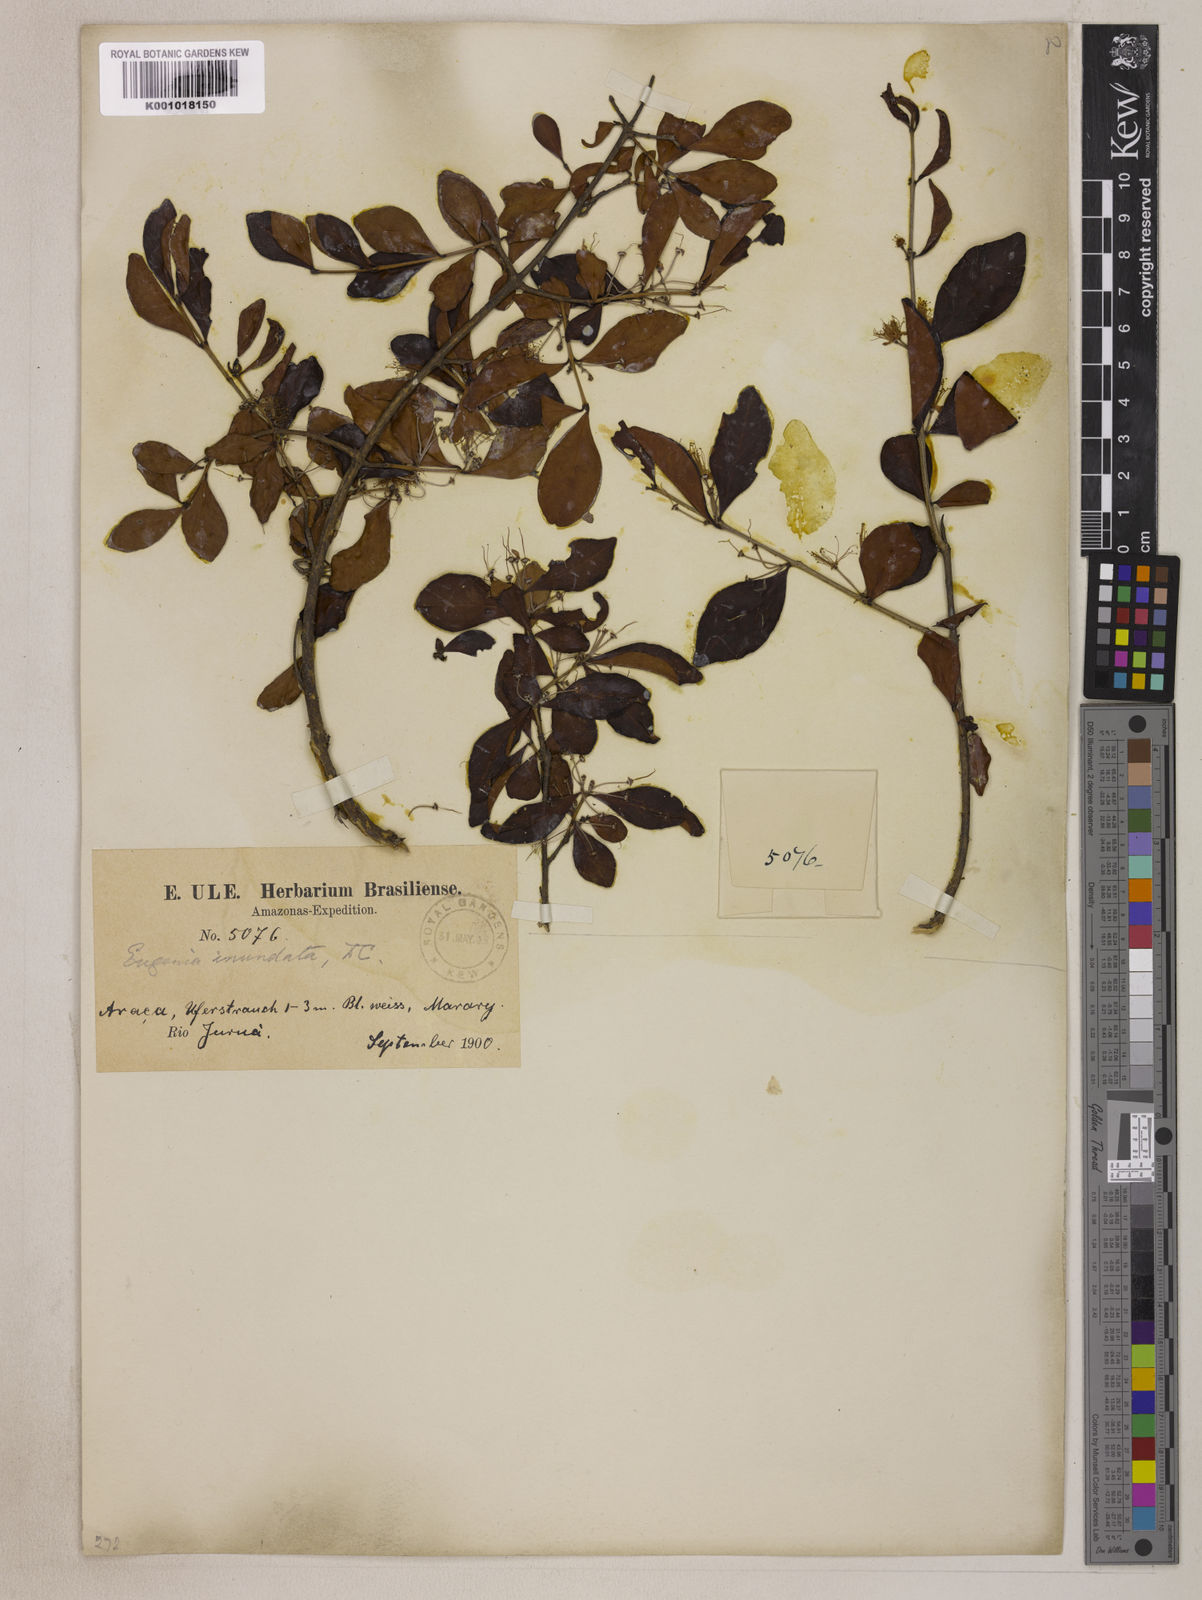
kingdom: Plantae
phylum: Tracheophyta
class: Magnoliopsida
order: Myrtales
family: Myrtaceae
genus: Eugenia
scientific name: Eugenia inundata
